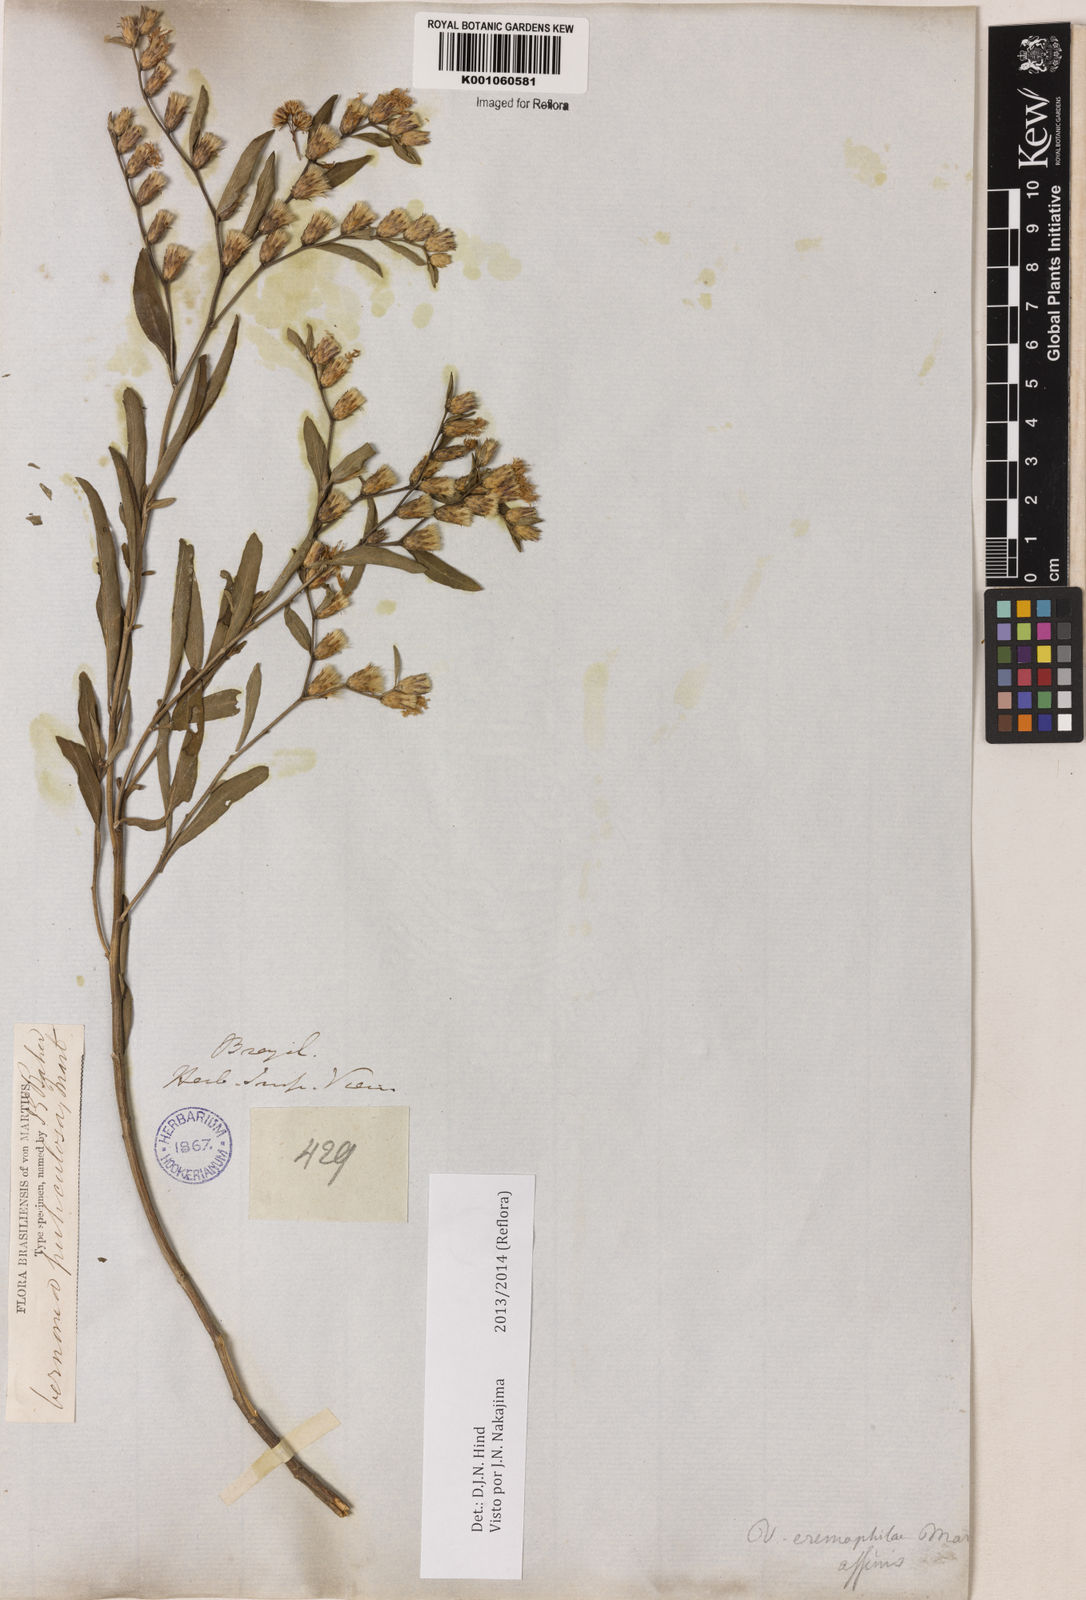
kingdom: Plantae
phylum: Tracheophyta
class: Magnoliopsida
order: Asterales
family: Asteraceae
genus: Lepidaploa
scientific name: Lepidaploa rufogrisea
